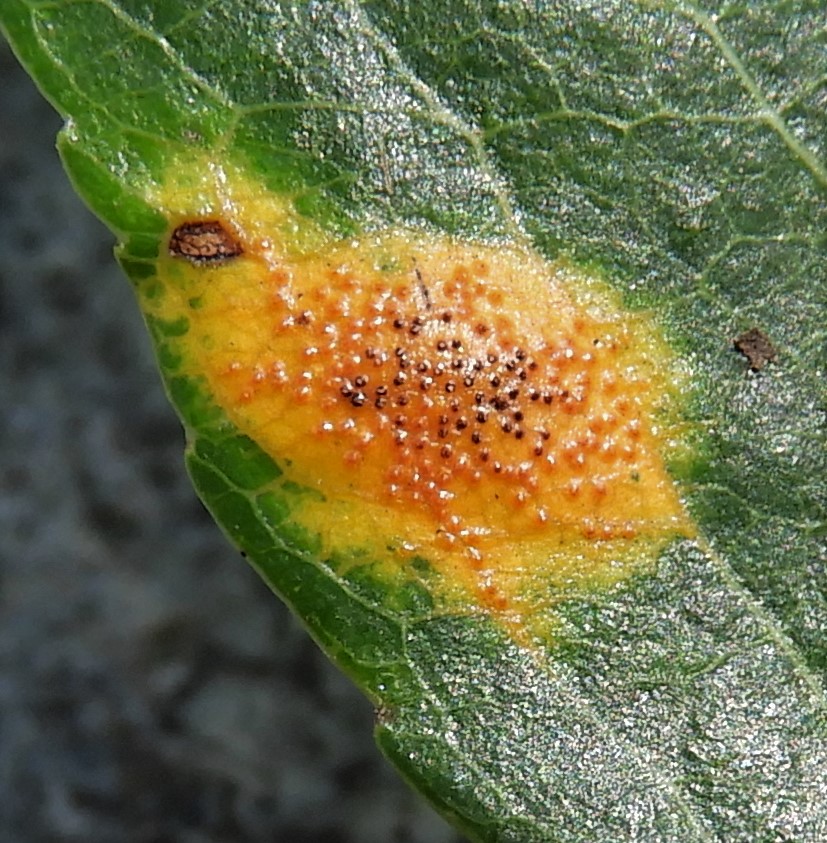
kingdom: Fungi
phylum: Basidiomycota
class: Pucciniomycetes
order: Pucciniales
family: Gymnosporangiaceae
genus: Gymnosporangium
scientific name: Gymnosporangium sabinae
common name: pæregitter-bævrerust
